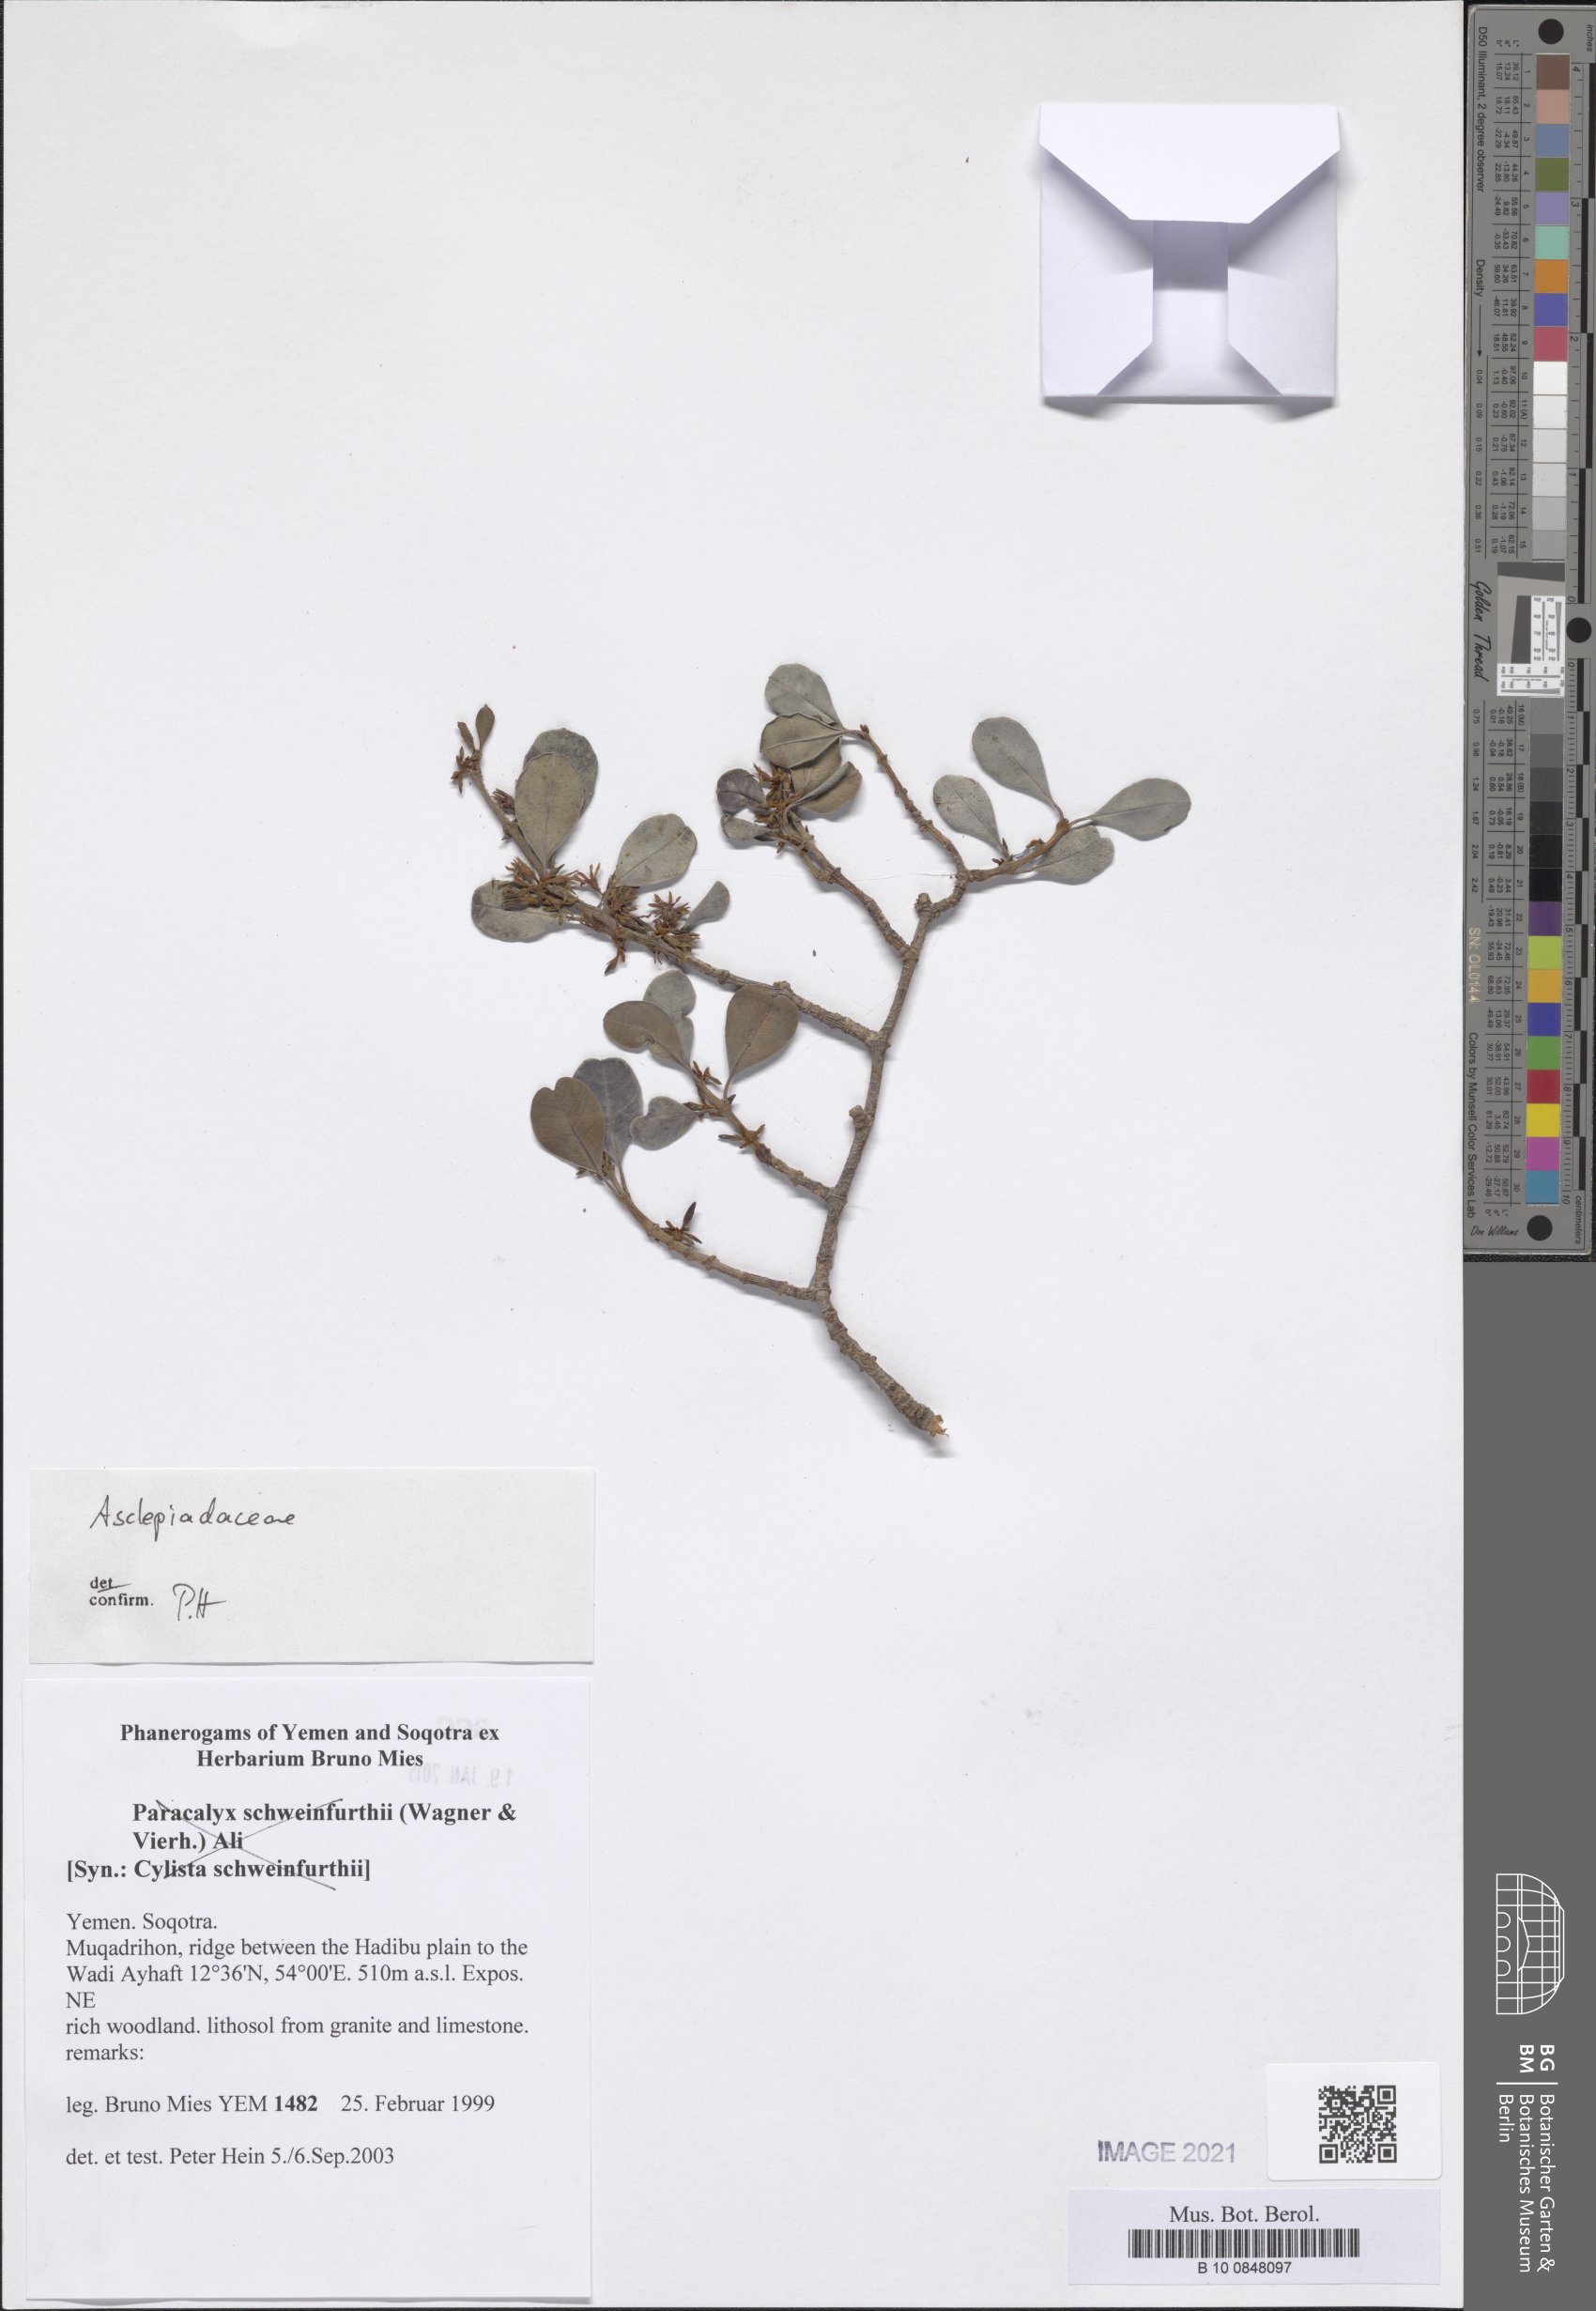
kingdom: Plantae
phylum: Tracheophyta
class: Magnoliopsida
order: Gentianales
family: Apocynaceae
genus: Secamone
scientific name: Secamone socotrana
